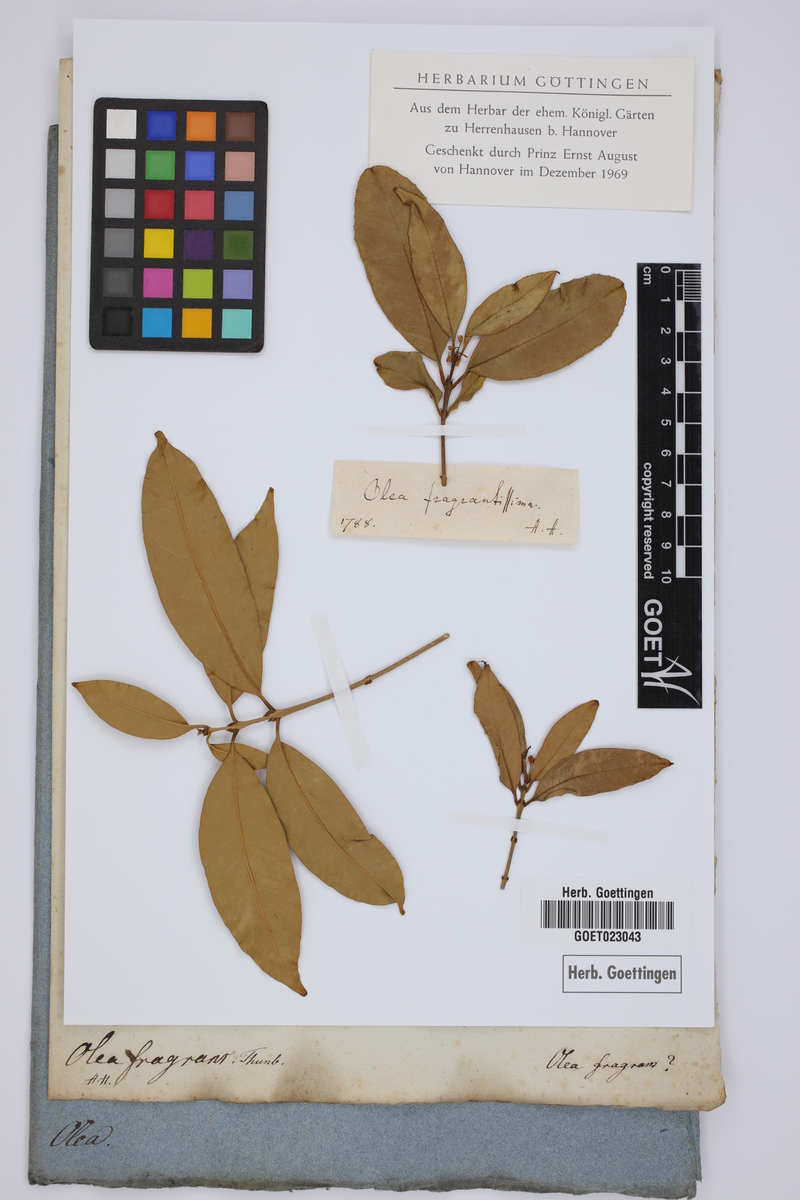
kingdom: Plantae
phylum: Tracheophyta
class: Magnoliopsida
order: Lamiales
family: Oleaceae
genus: Osmanthus
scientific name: Osmanthus fragrans
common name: Sweet osmanthus
